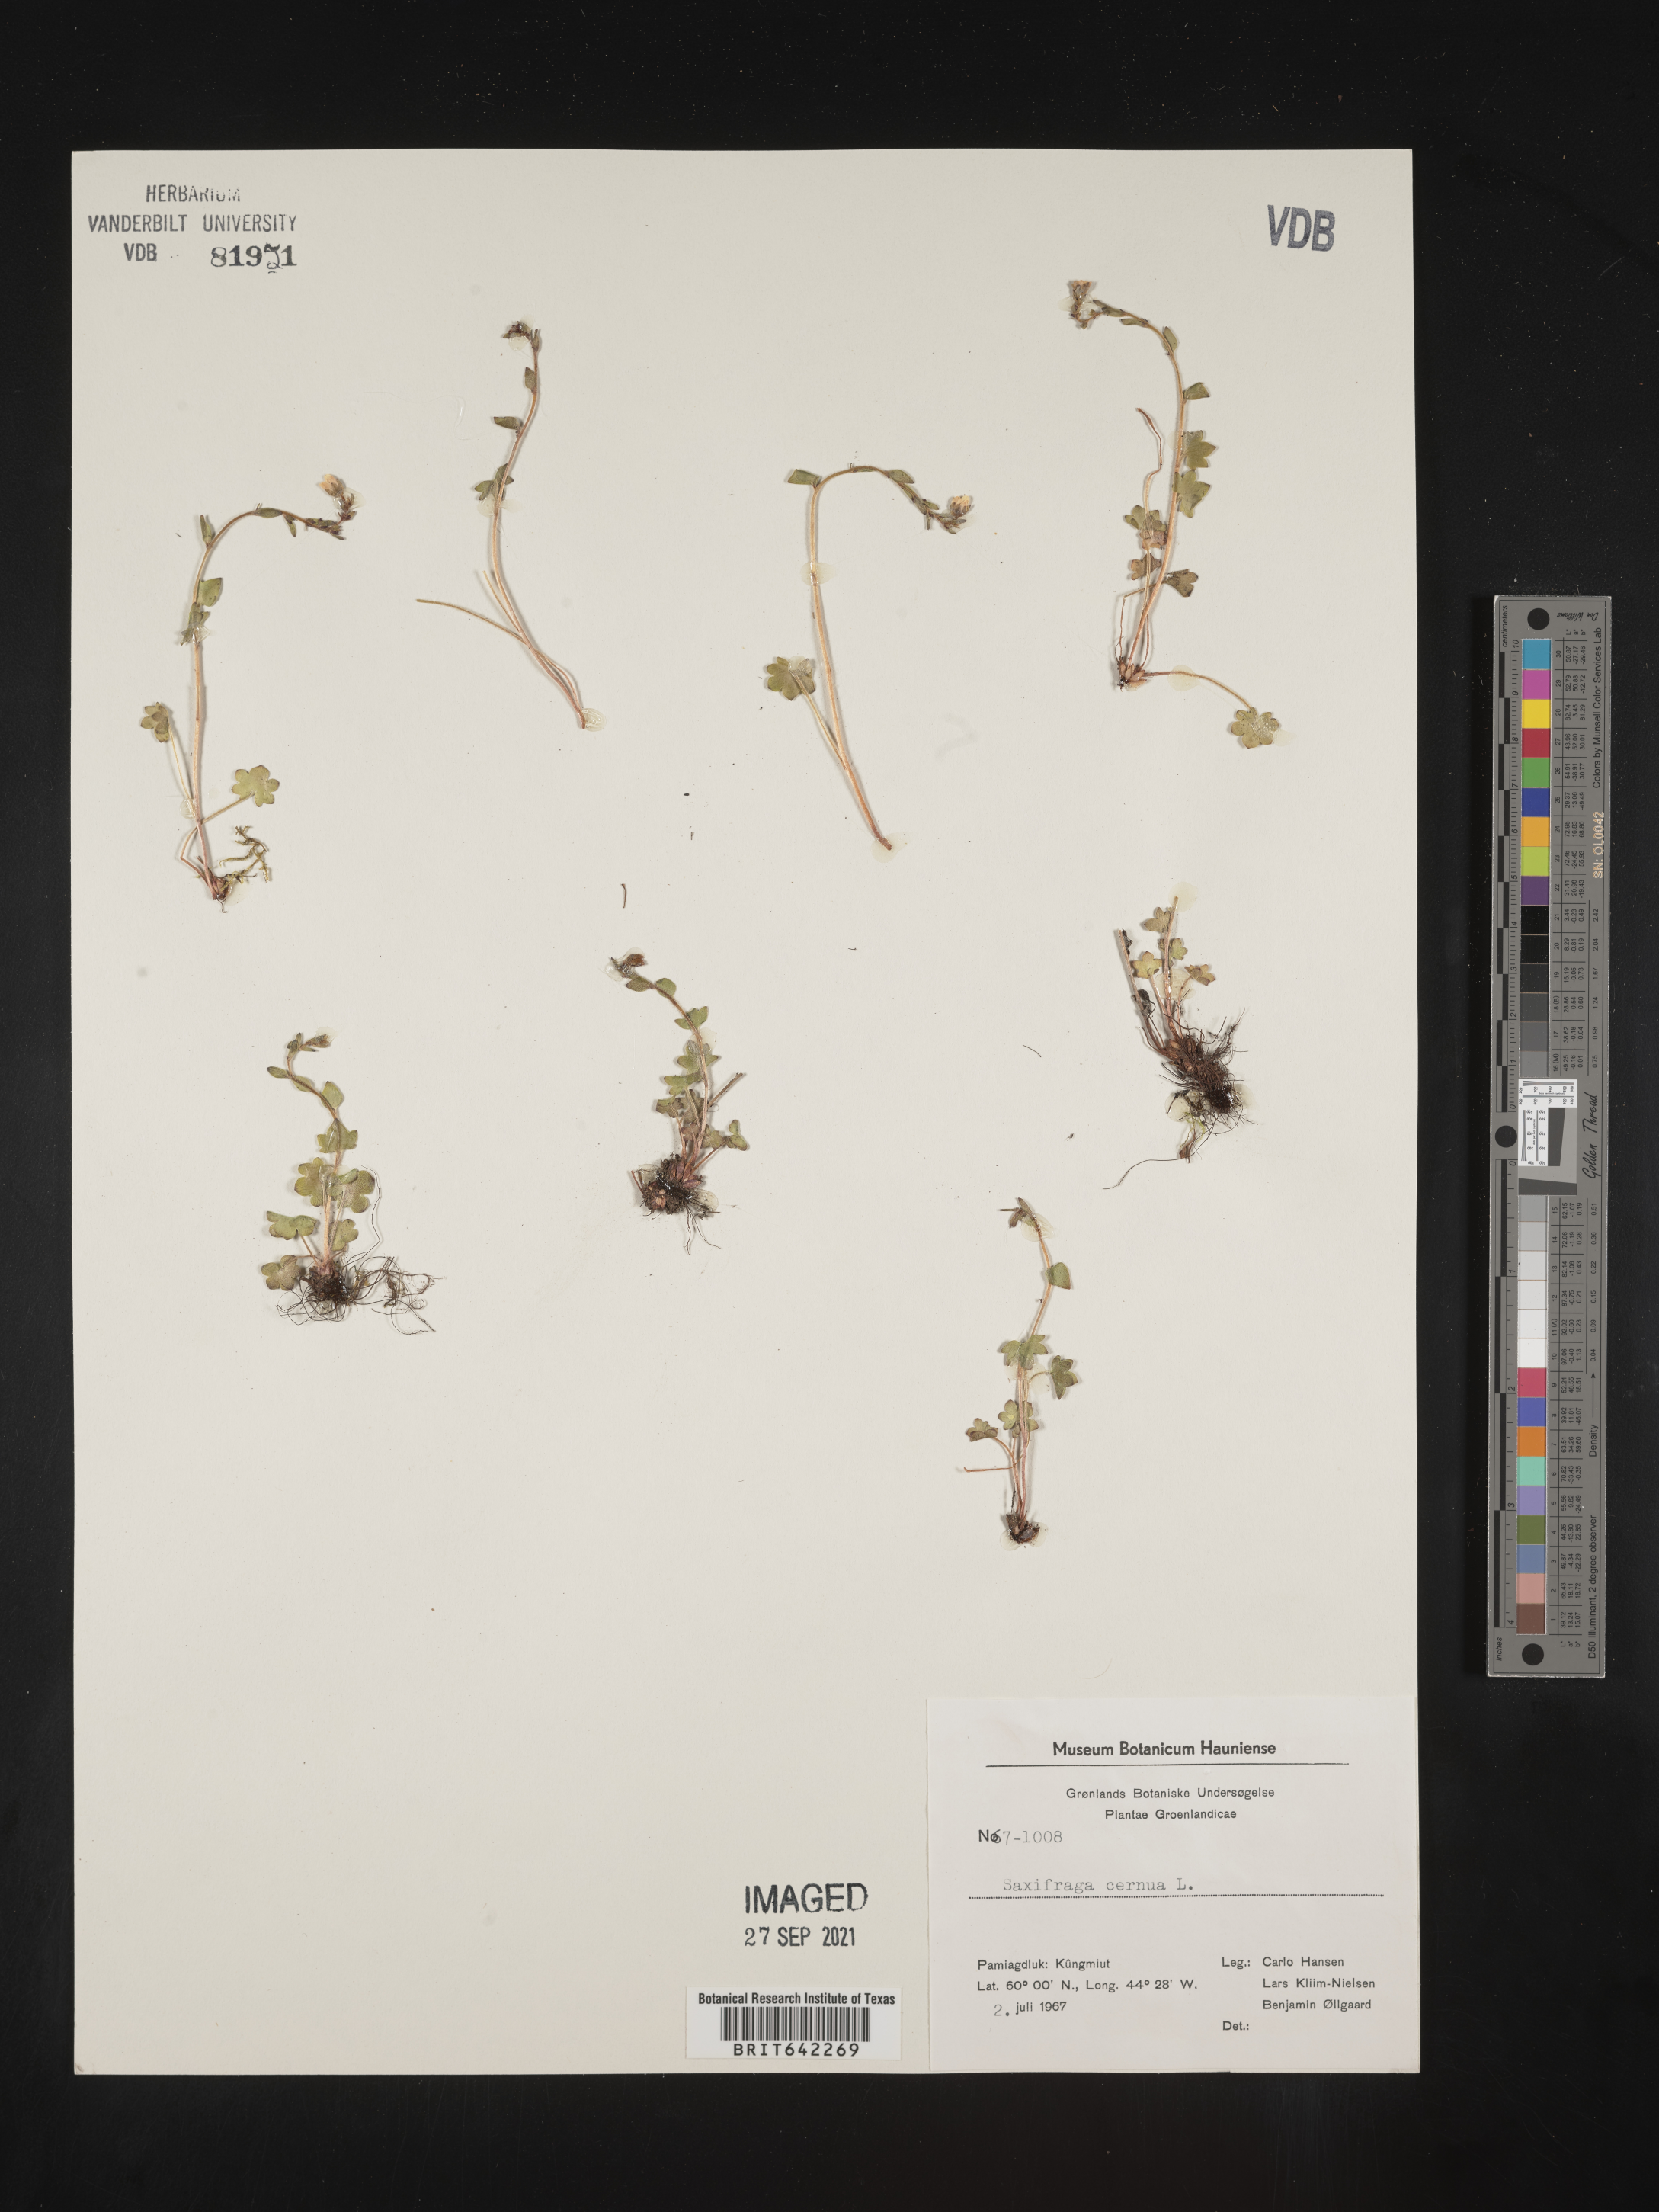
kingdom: Plantae
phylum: Tracheophyta
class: Magnoliopsida
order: Saxifragales
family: Saxifragaceae
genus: Saxifraga
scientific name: Saxifraga
